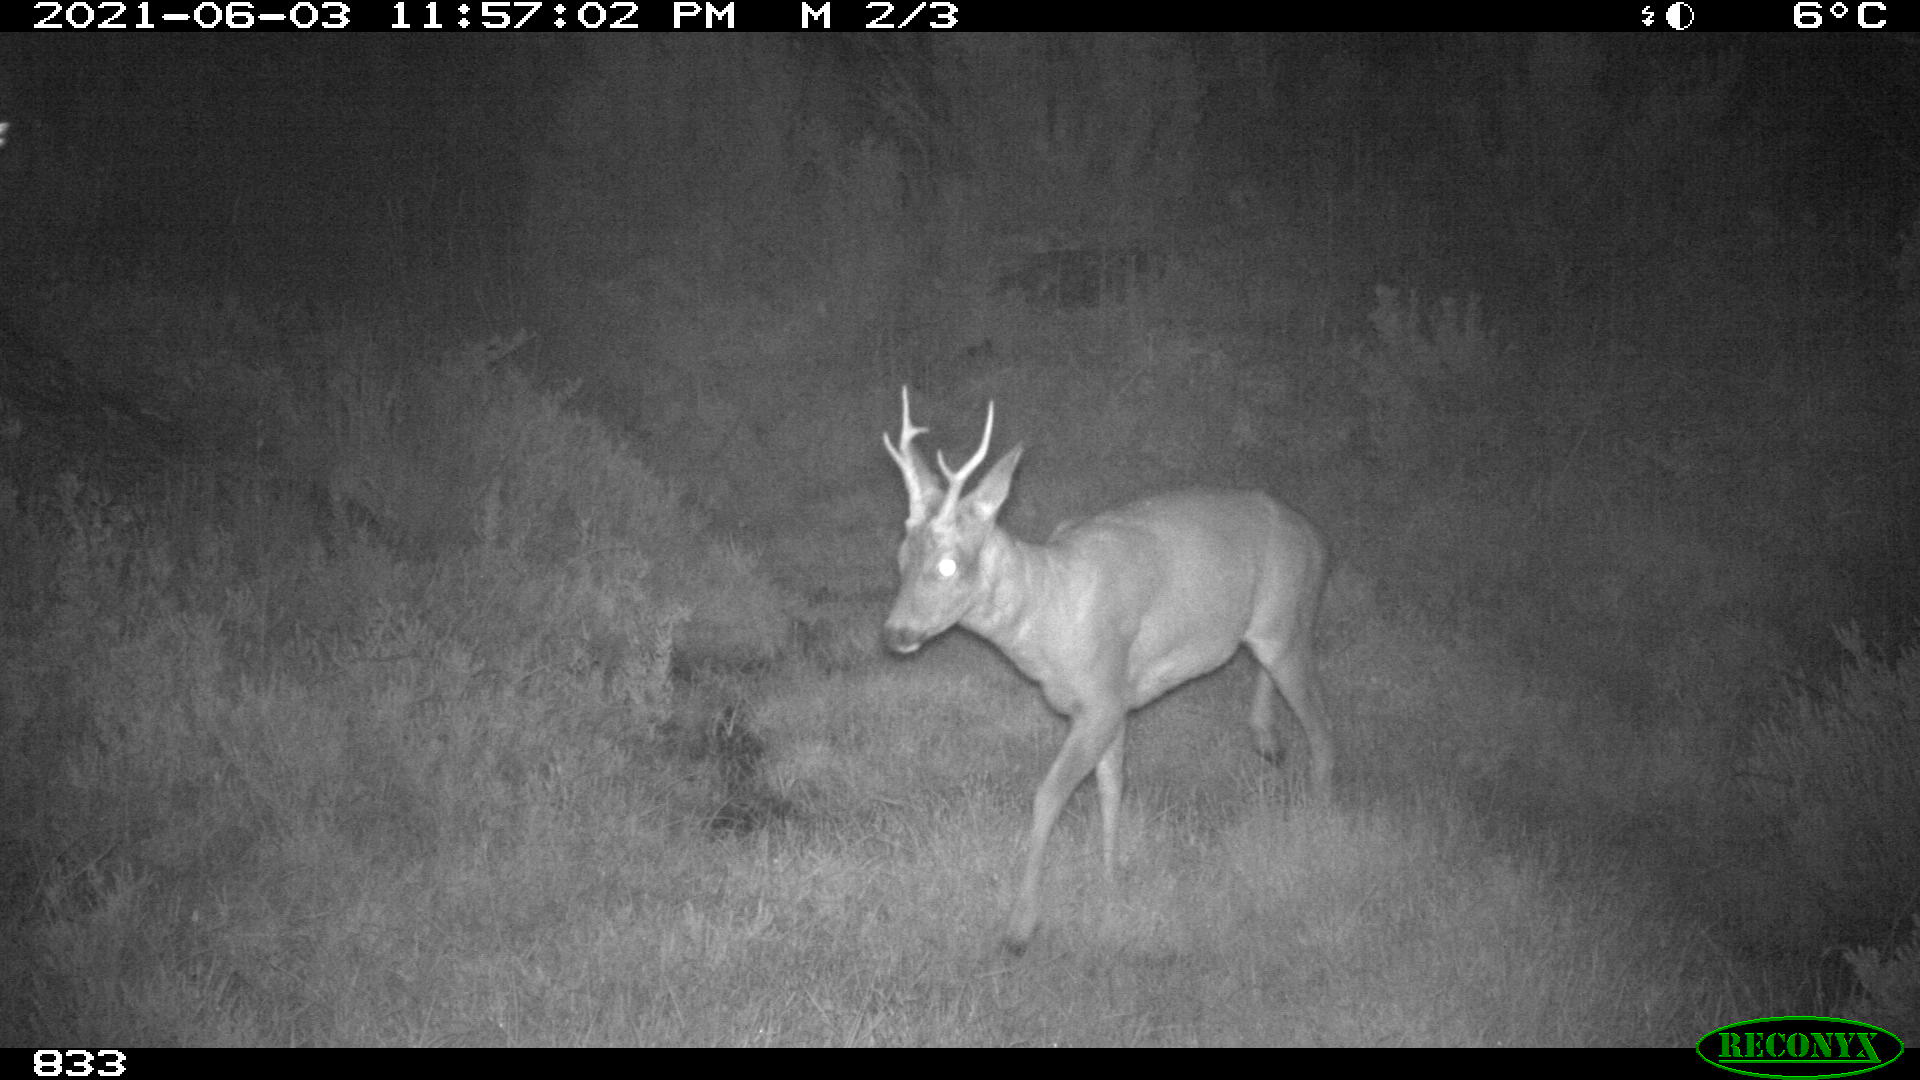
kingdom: Animalia
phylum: Chordata
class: Mammalia
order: Artiodactyla
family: Cervidae
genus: Capreolus
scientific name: Capreolus capreolus
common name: Western roe deer
